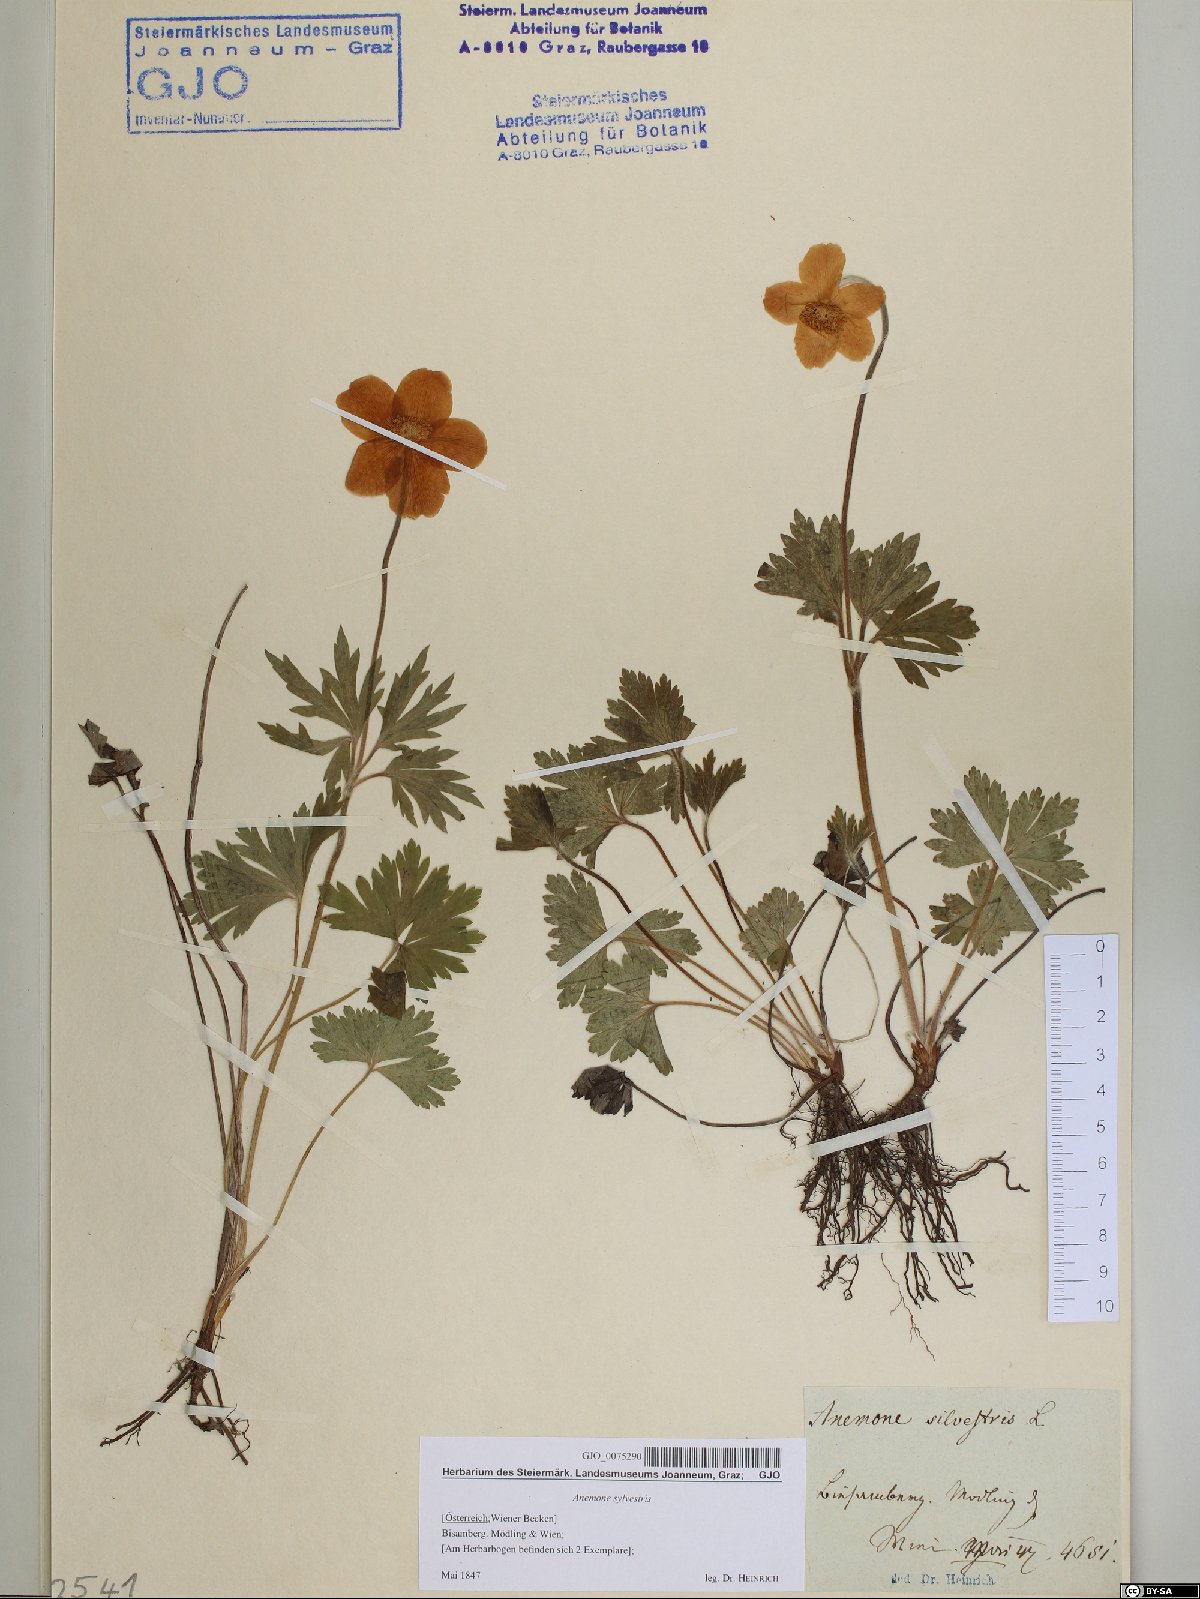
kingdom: Plantae
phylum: Tracheophyta
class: Magnoliopsida
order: Ranunculales
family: Ranunculaceae
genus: Anemone
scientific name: Anemone sylvestris
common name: Snowdrop anemone
